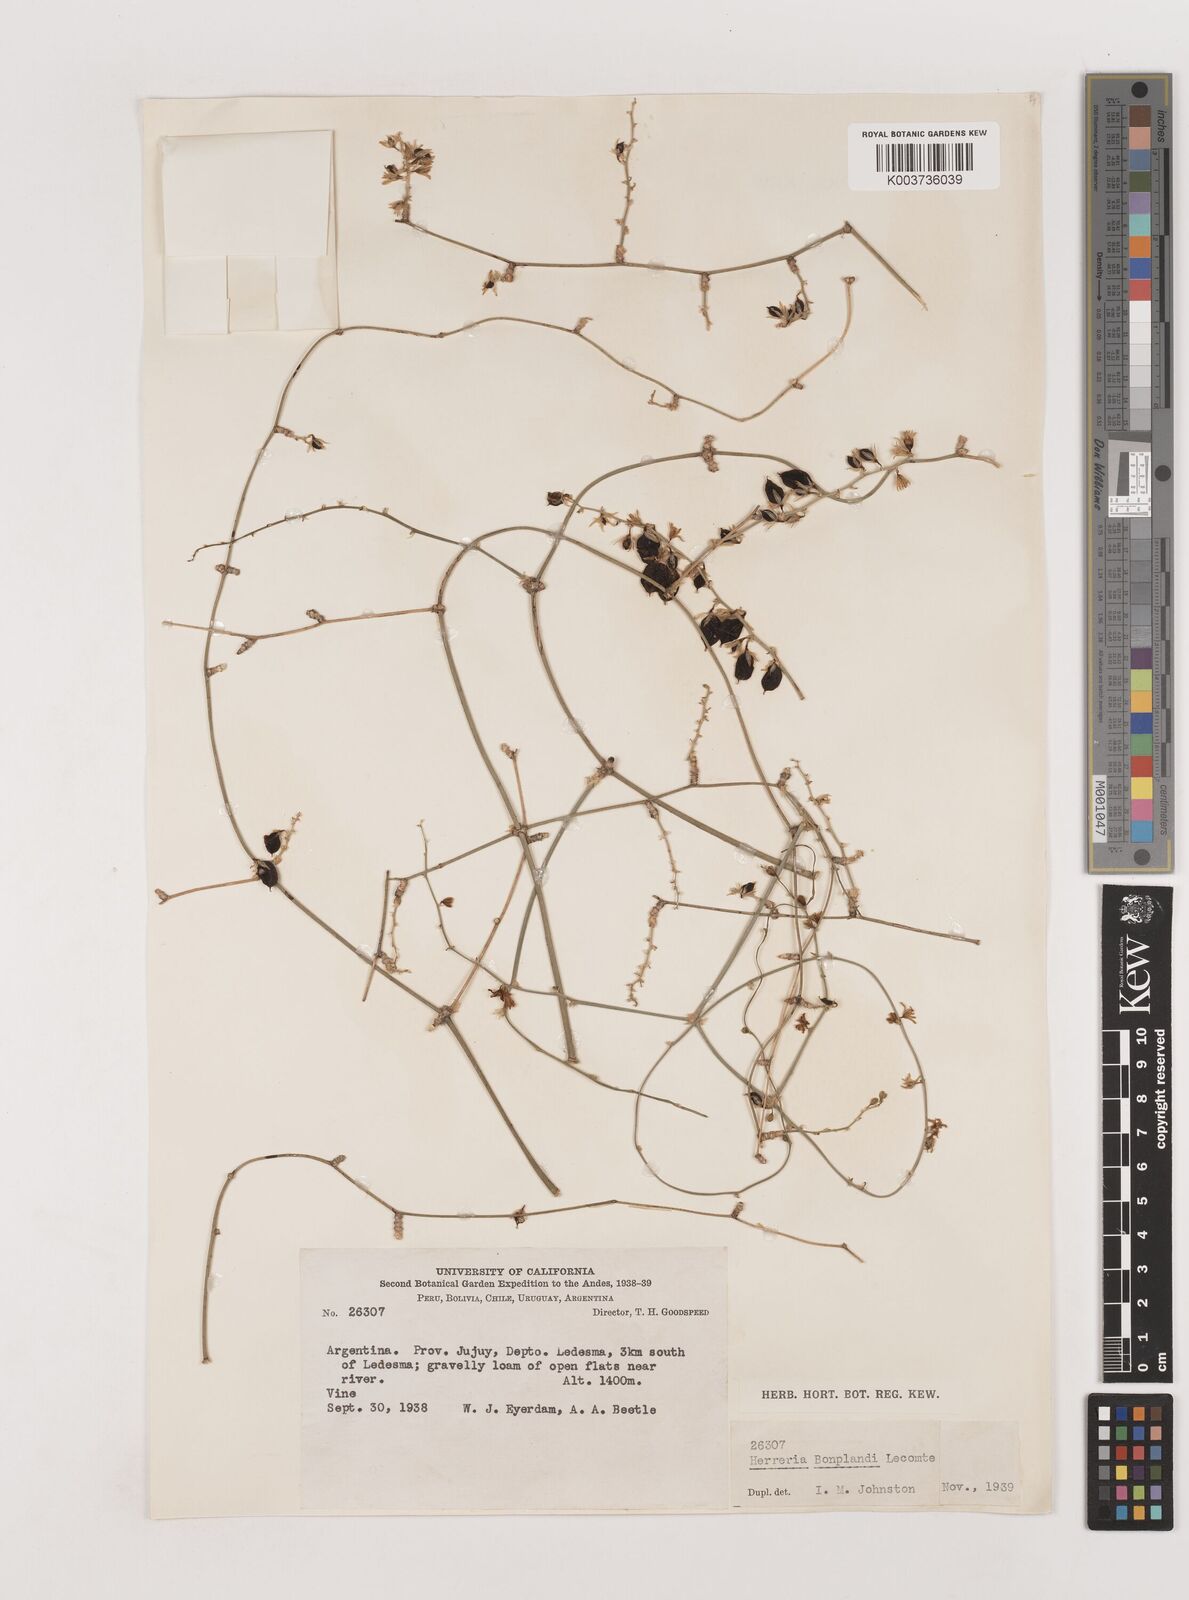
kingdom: Plantae
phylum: Tracheophyta
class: Liliopsida
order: Asparagales
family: Asparagaceae
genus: Herreria
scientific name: Herreria montevidensis
